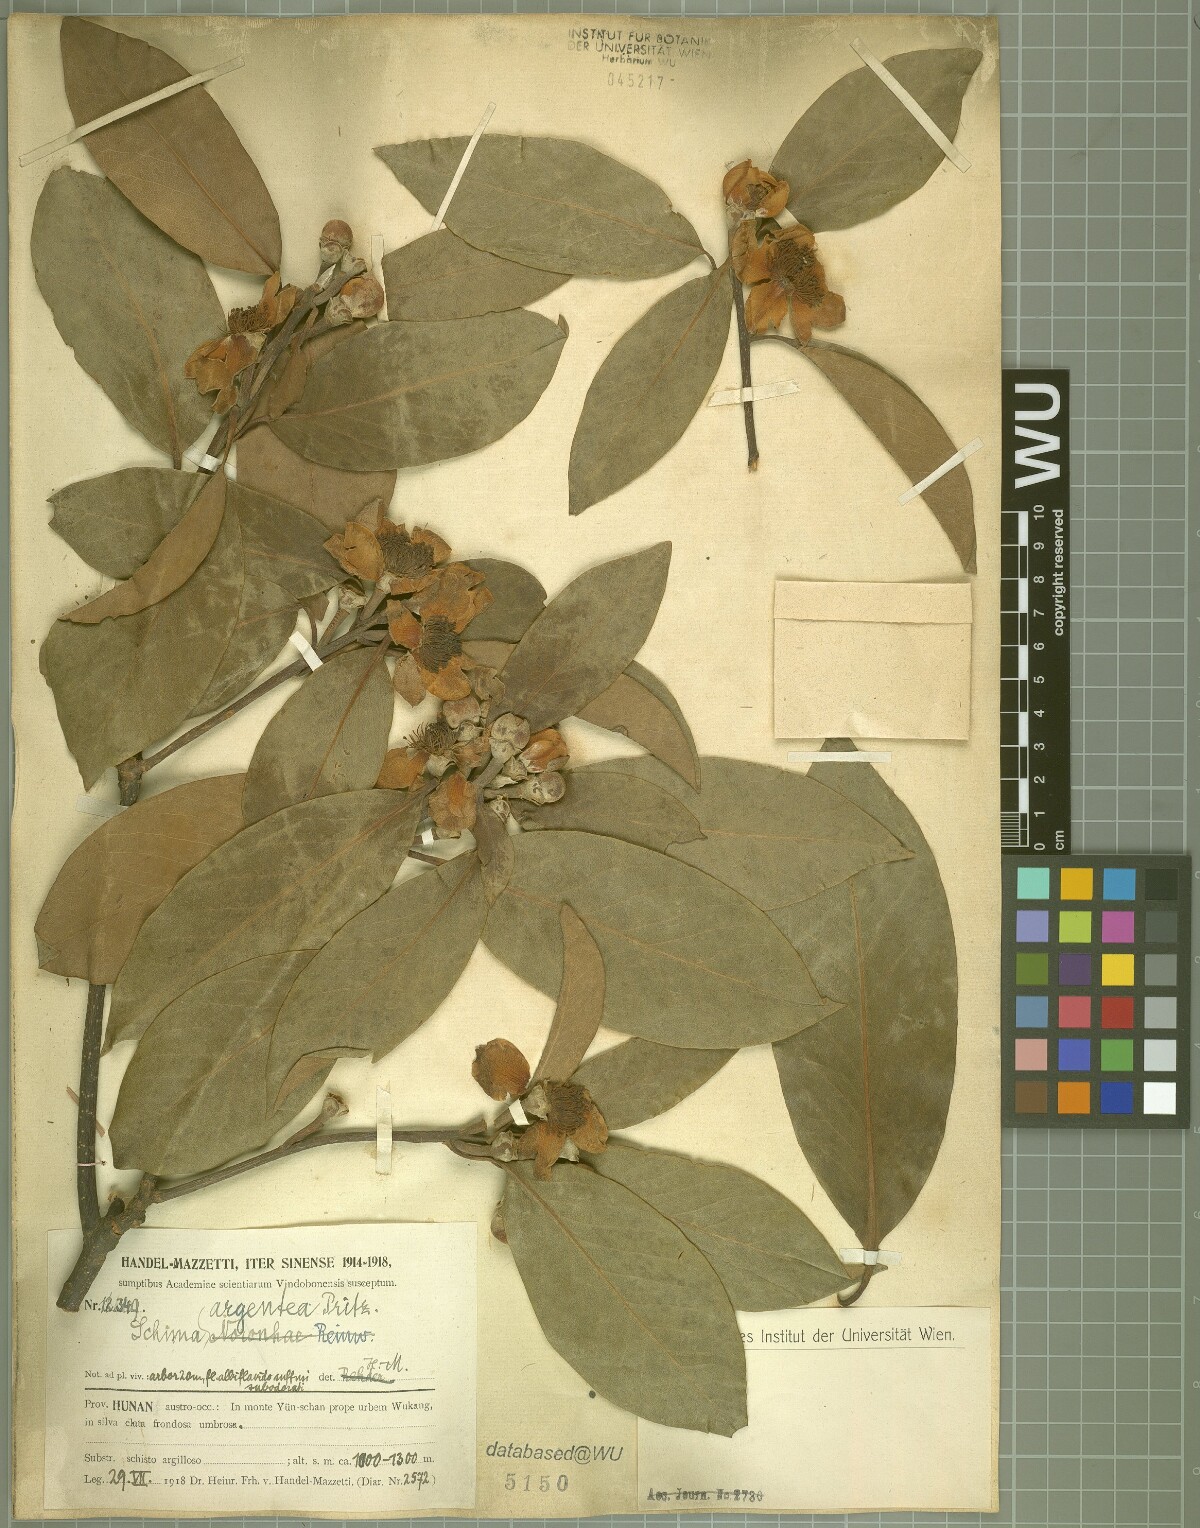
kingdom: Plantae
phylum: Tracheophyta
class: Magnoliopsida
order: Ericales
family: Theaceae
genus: Schima
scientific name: Schima argentea
